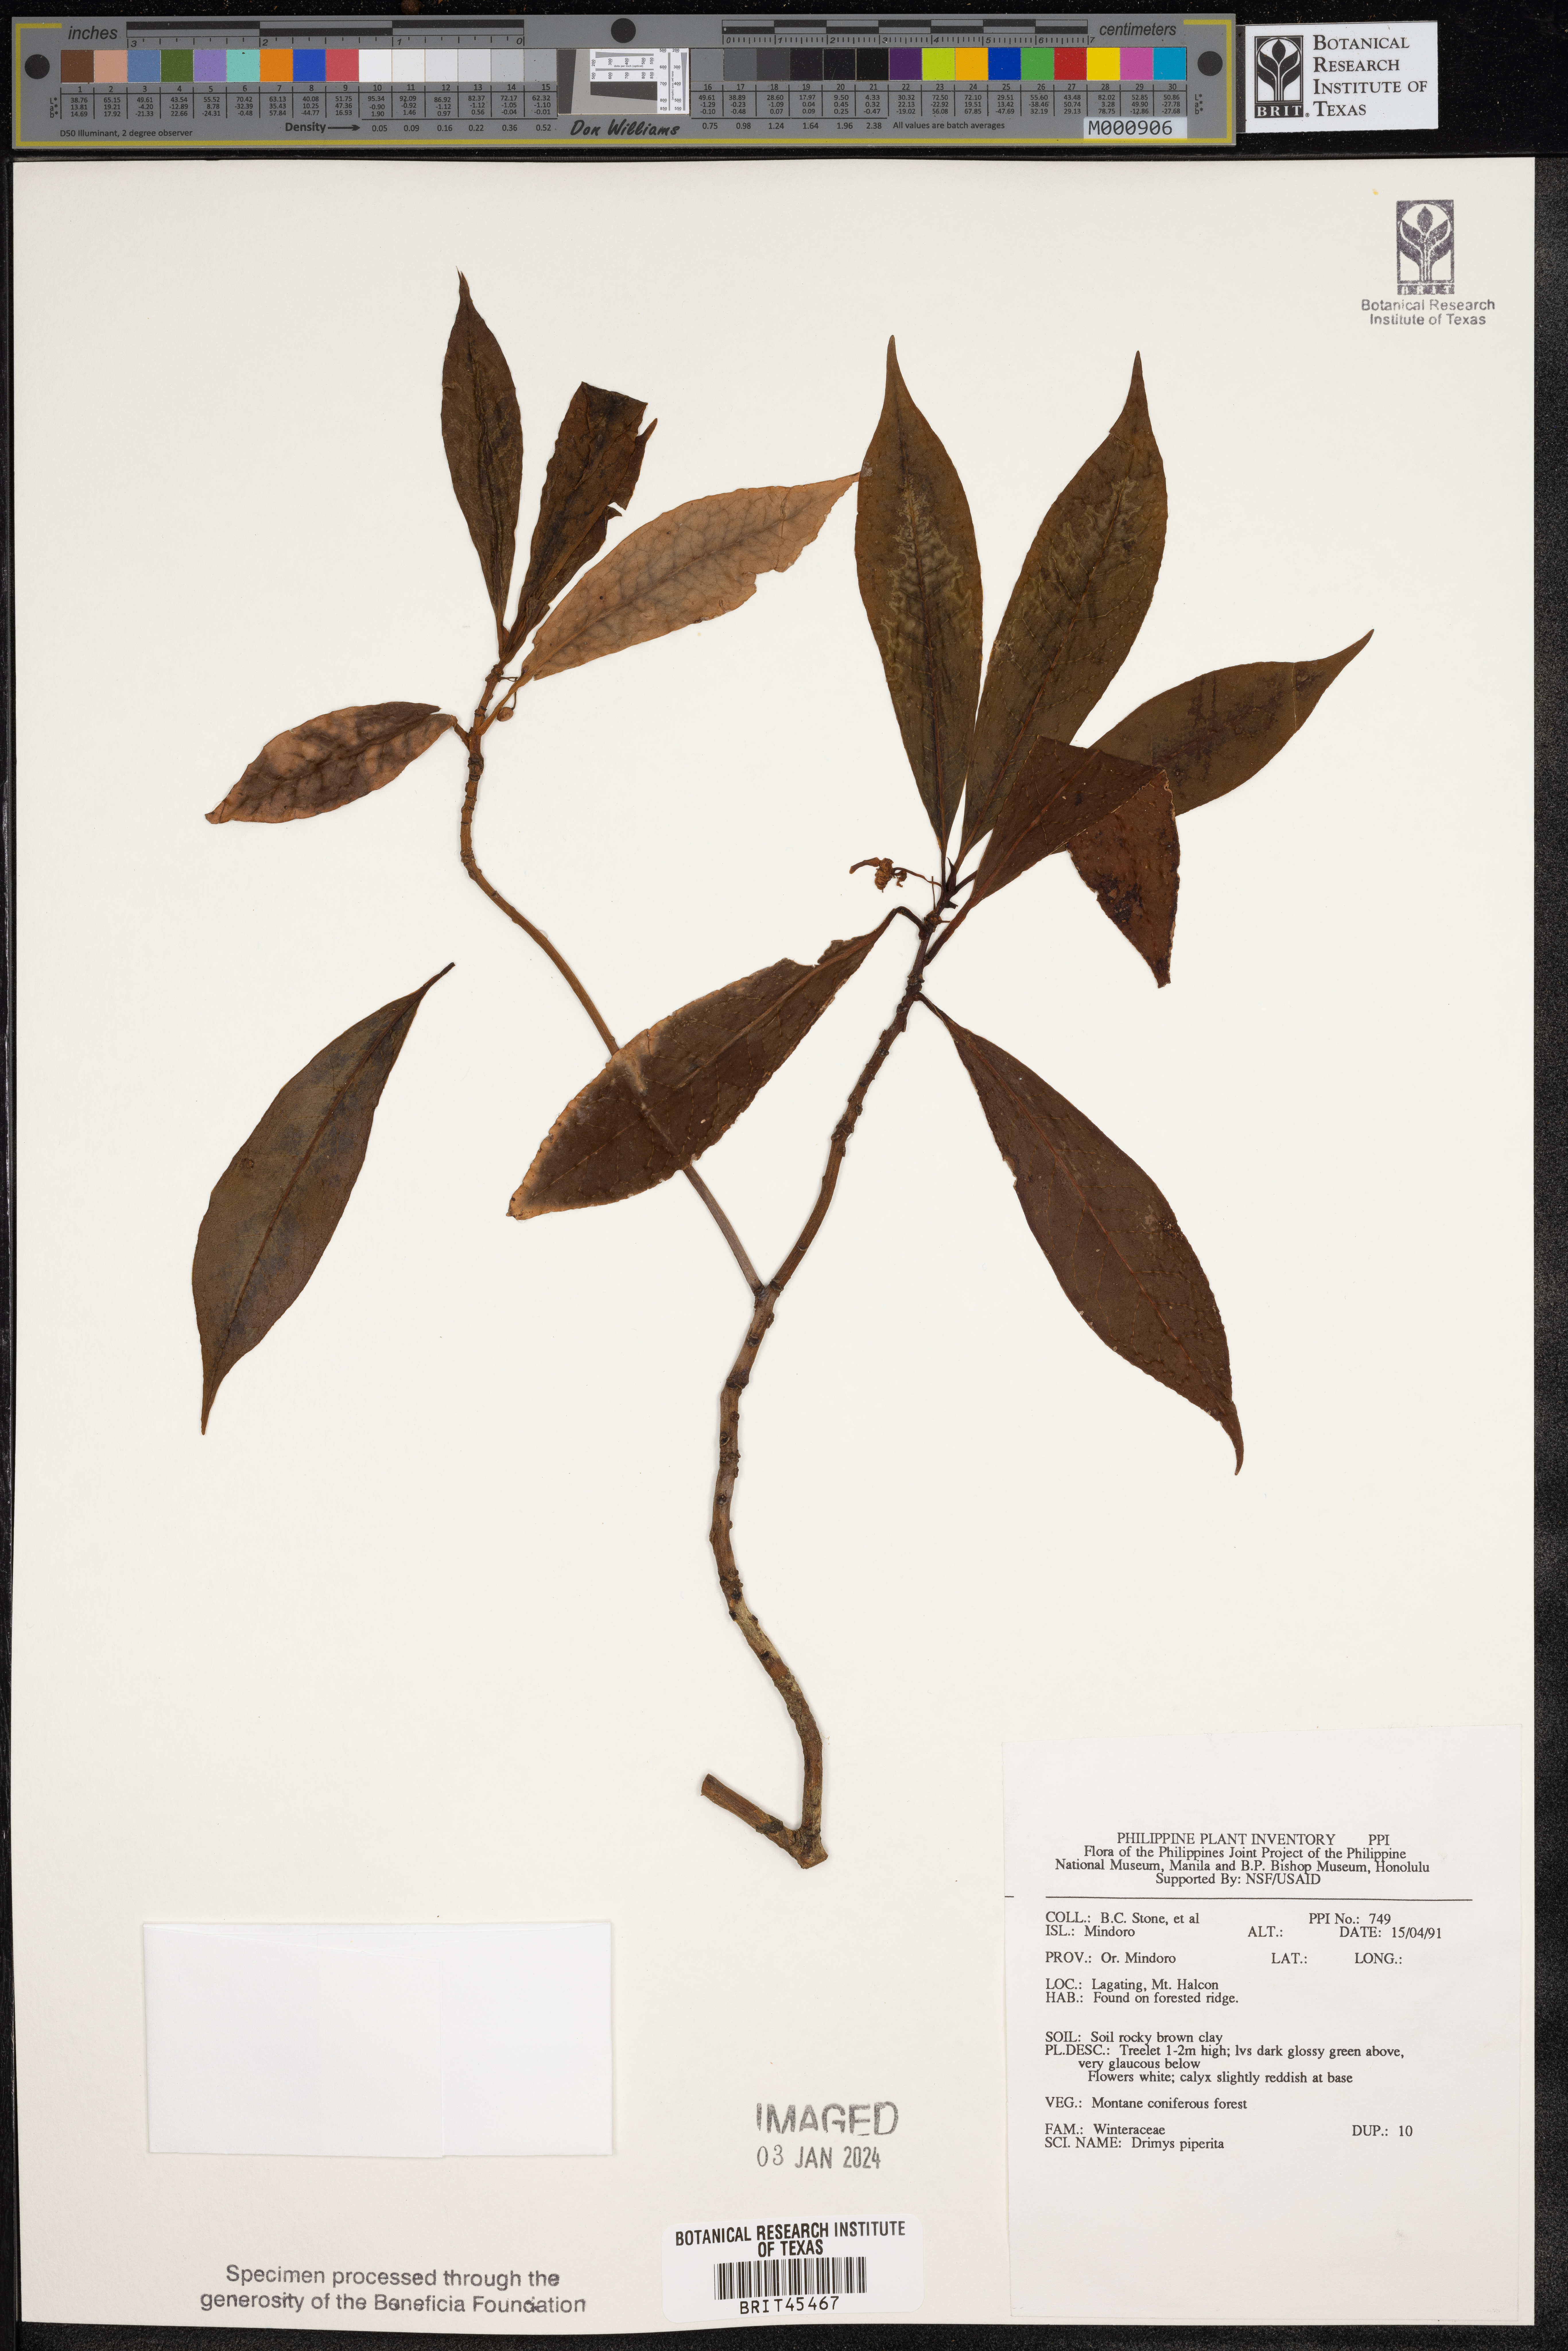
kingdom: Plantae
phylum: Tracheophyta
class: Magnoliopsida
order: Canellales
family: Winteraceae
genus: Drimys
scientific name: Drimys piperita
